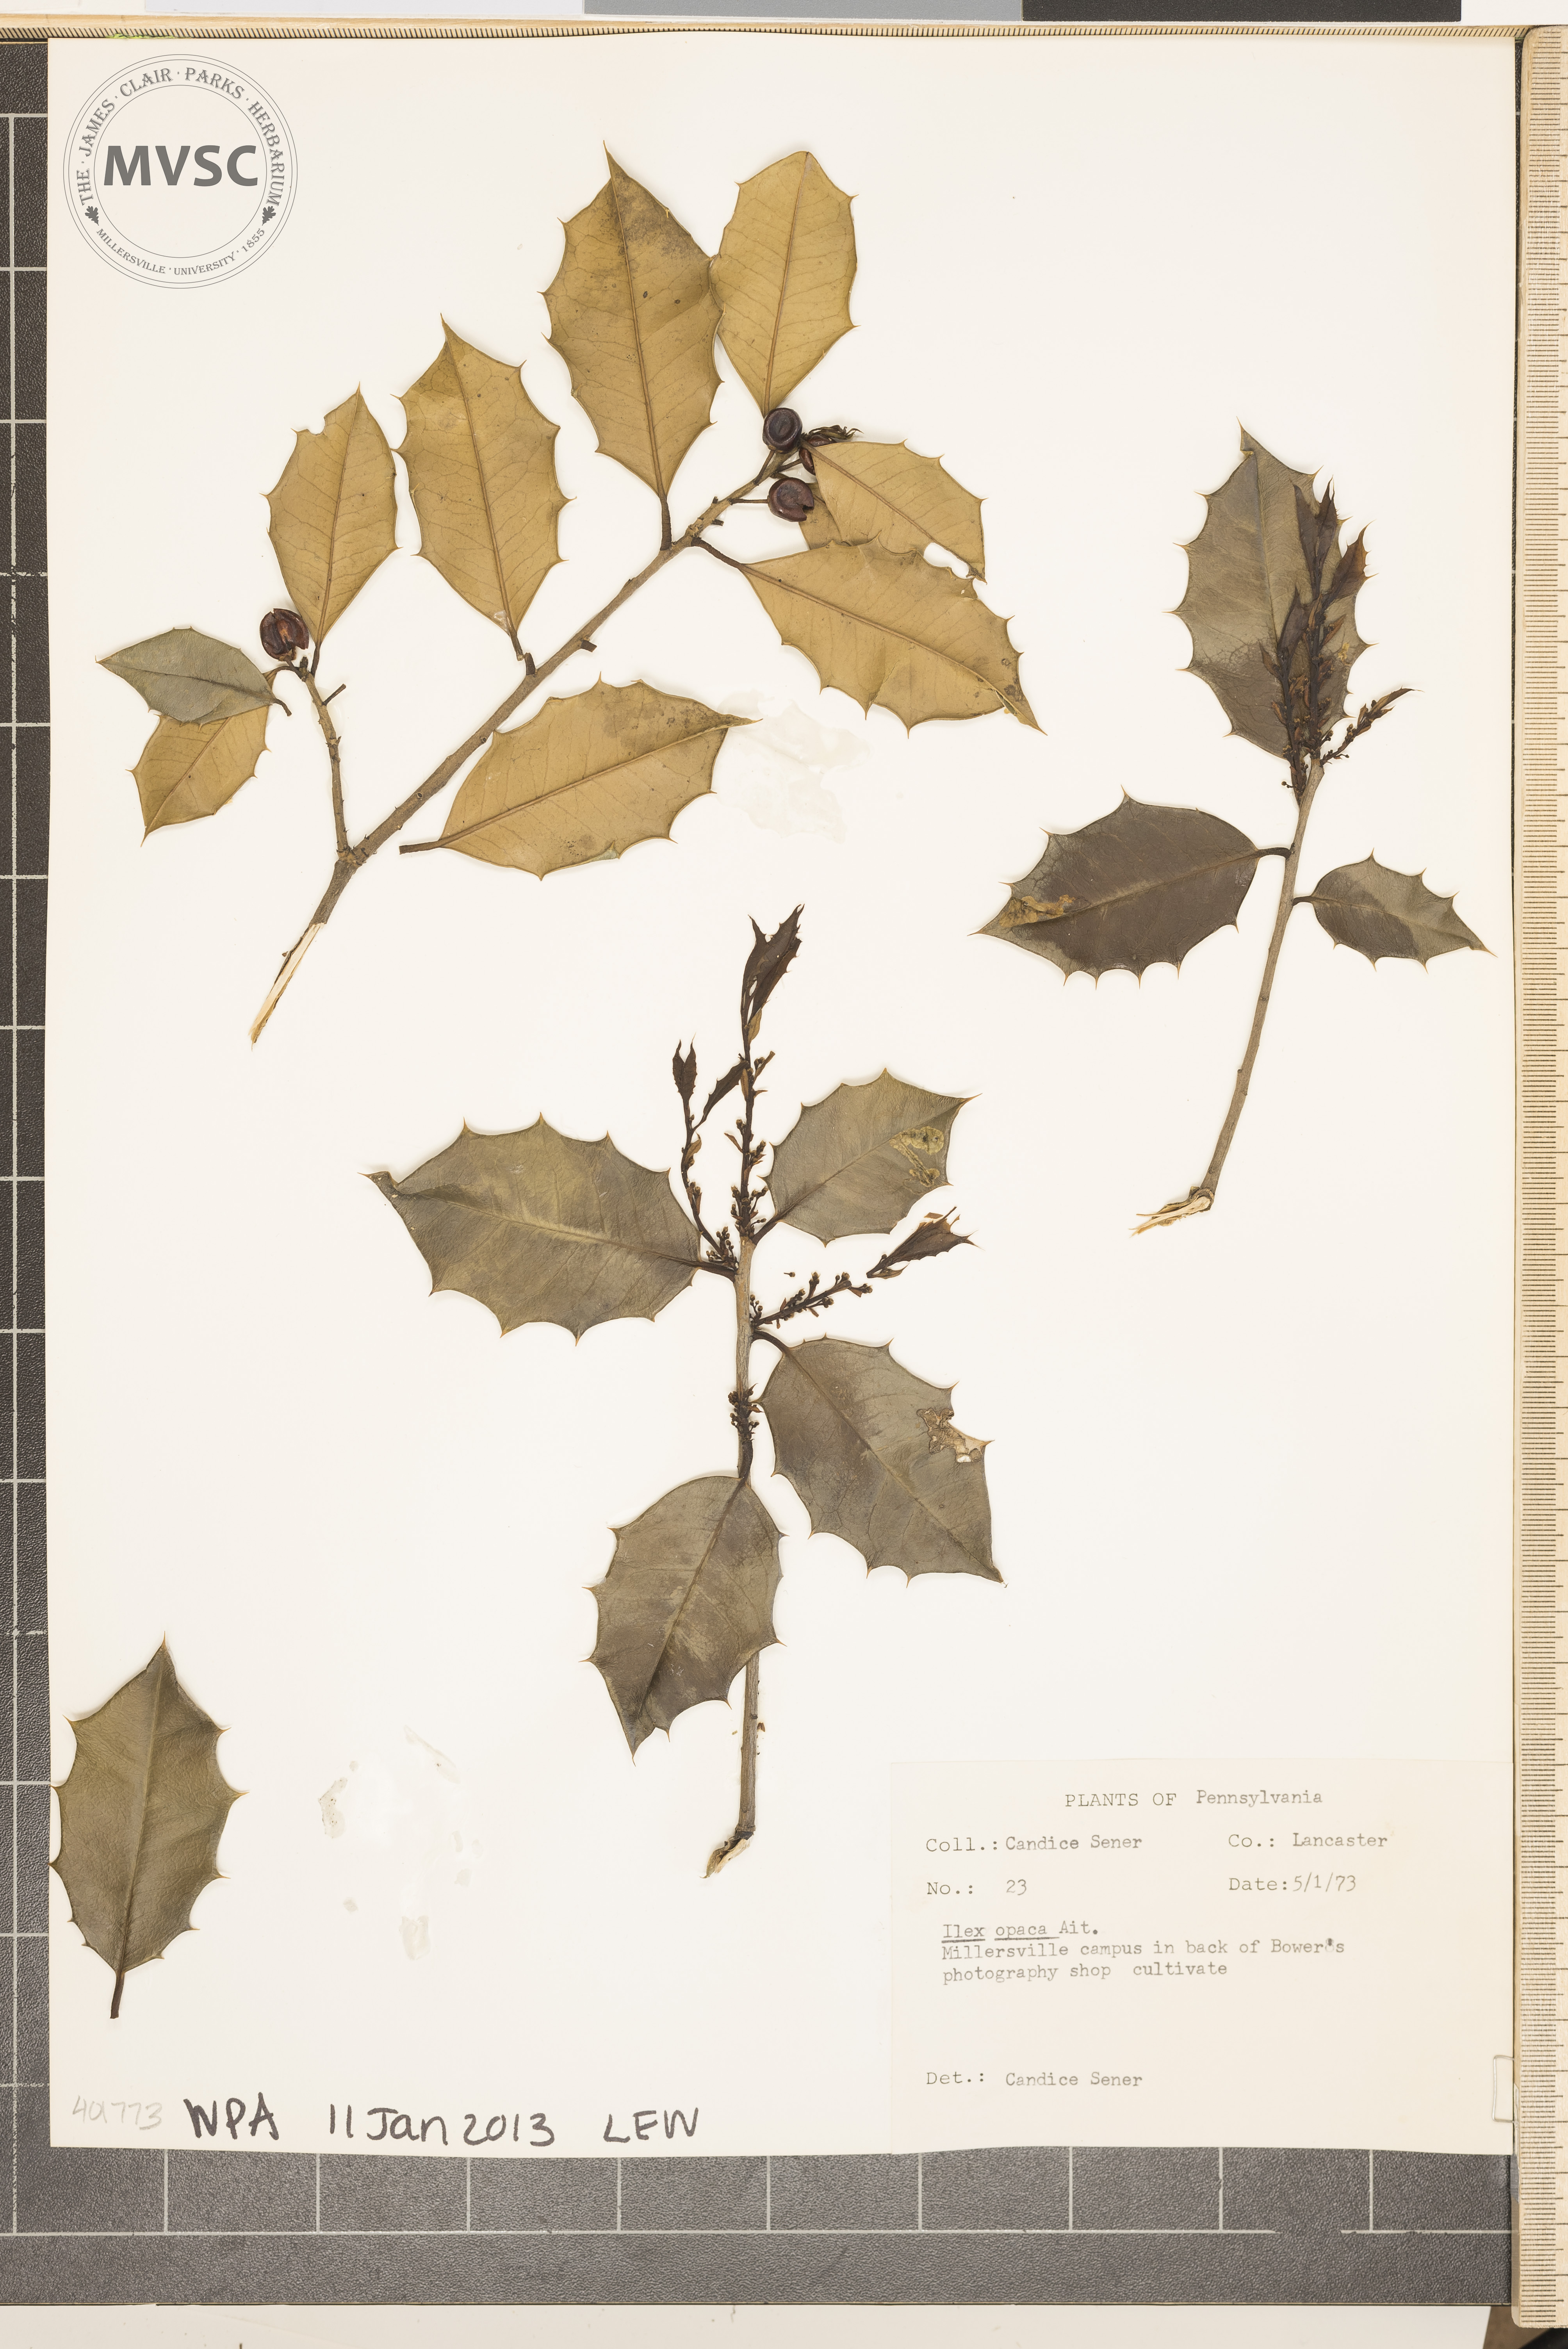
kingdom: Plantae
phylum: Tracheophyta
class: Magnoliopsida
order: Aquifoliales
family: Aquifoliaceae
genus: Ilex
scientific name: Ilex opaca
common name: American Holly
